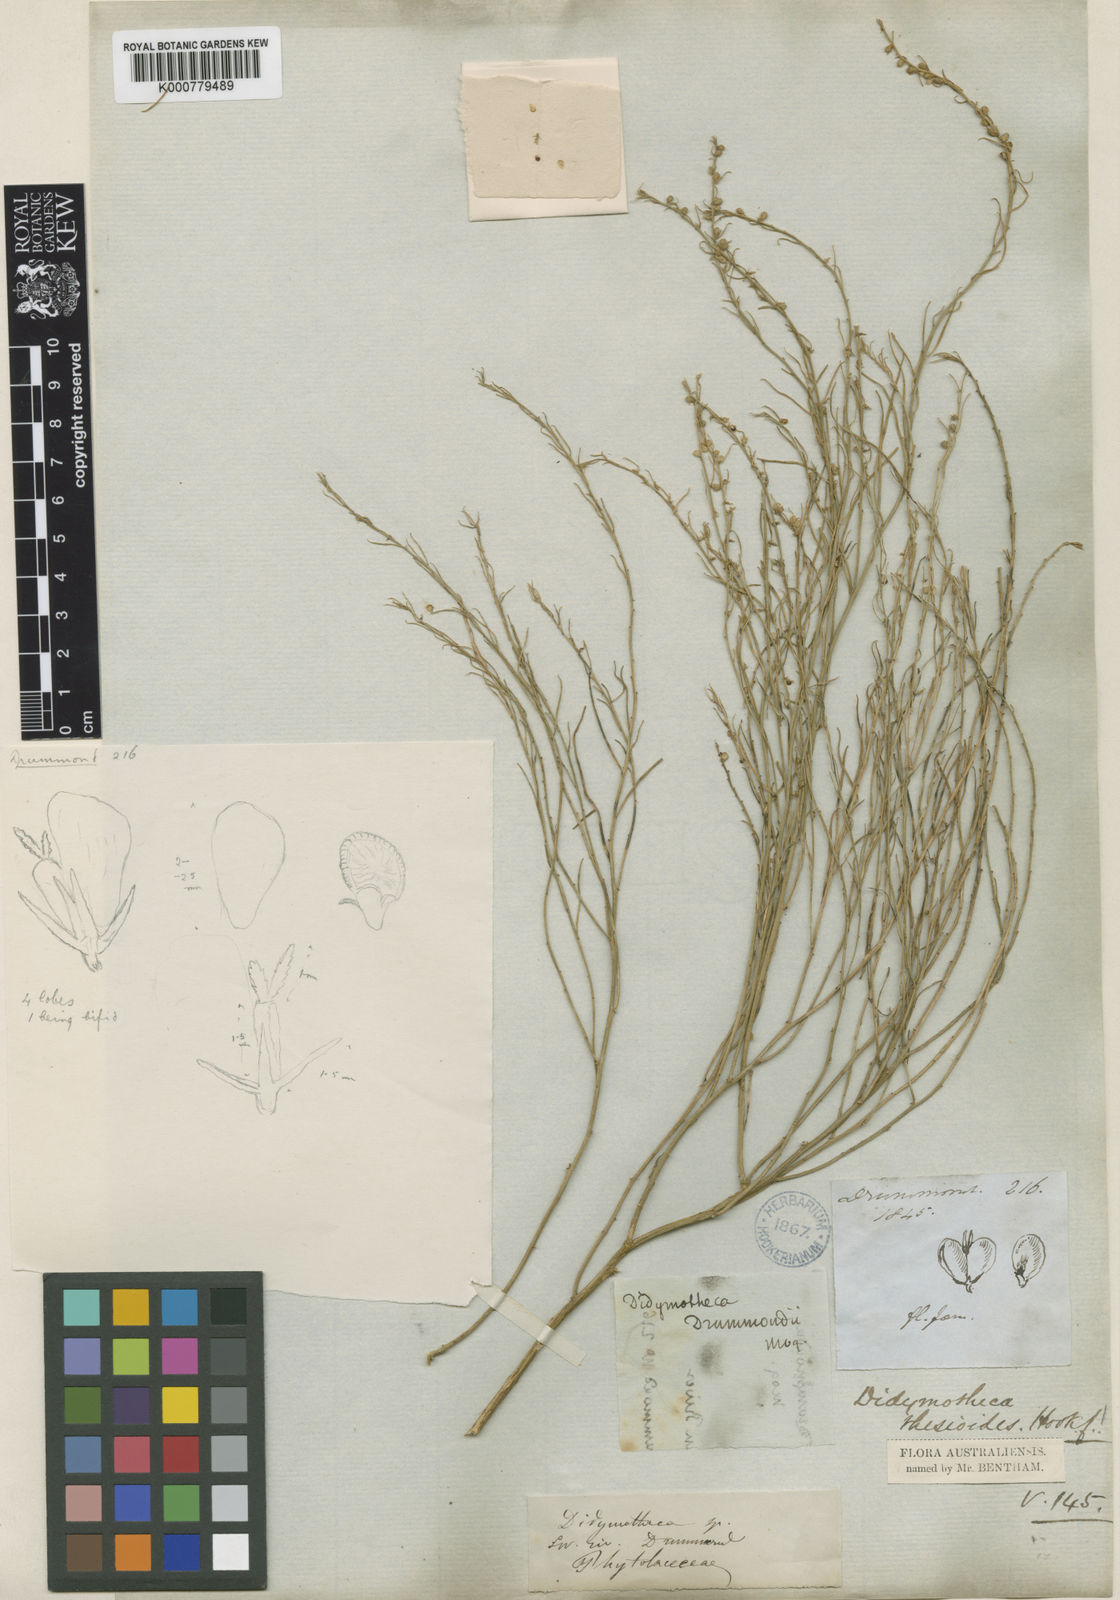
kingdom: Plantae
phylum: Tracheophyta
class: Magnoliopsida
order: Brassicales
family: Gyrostemonaceae
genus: Gyrostemon
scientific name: Gyrostemon thesioides
